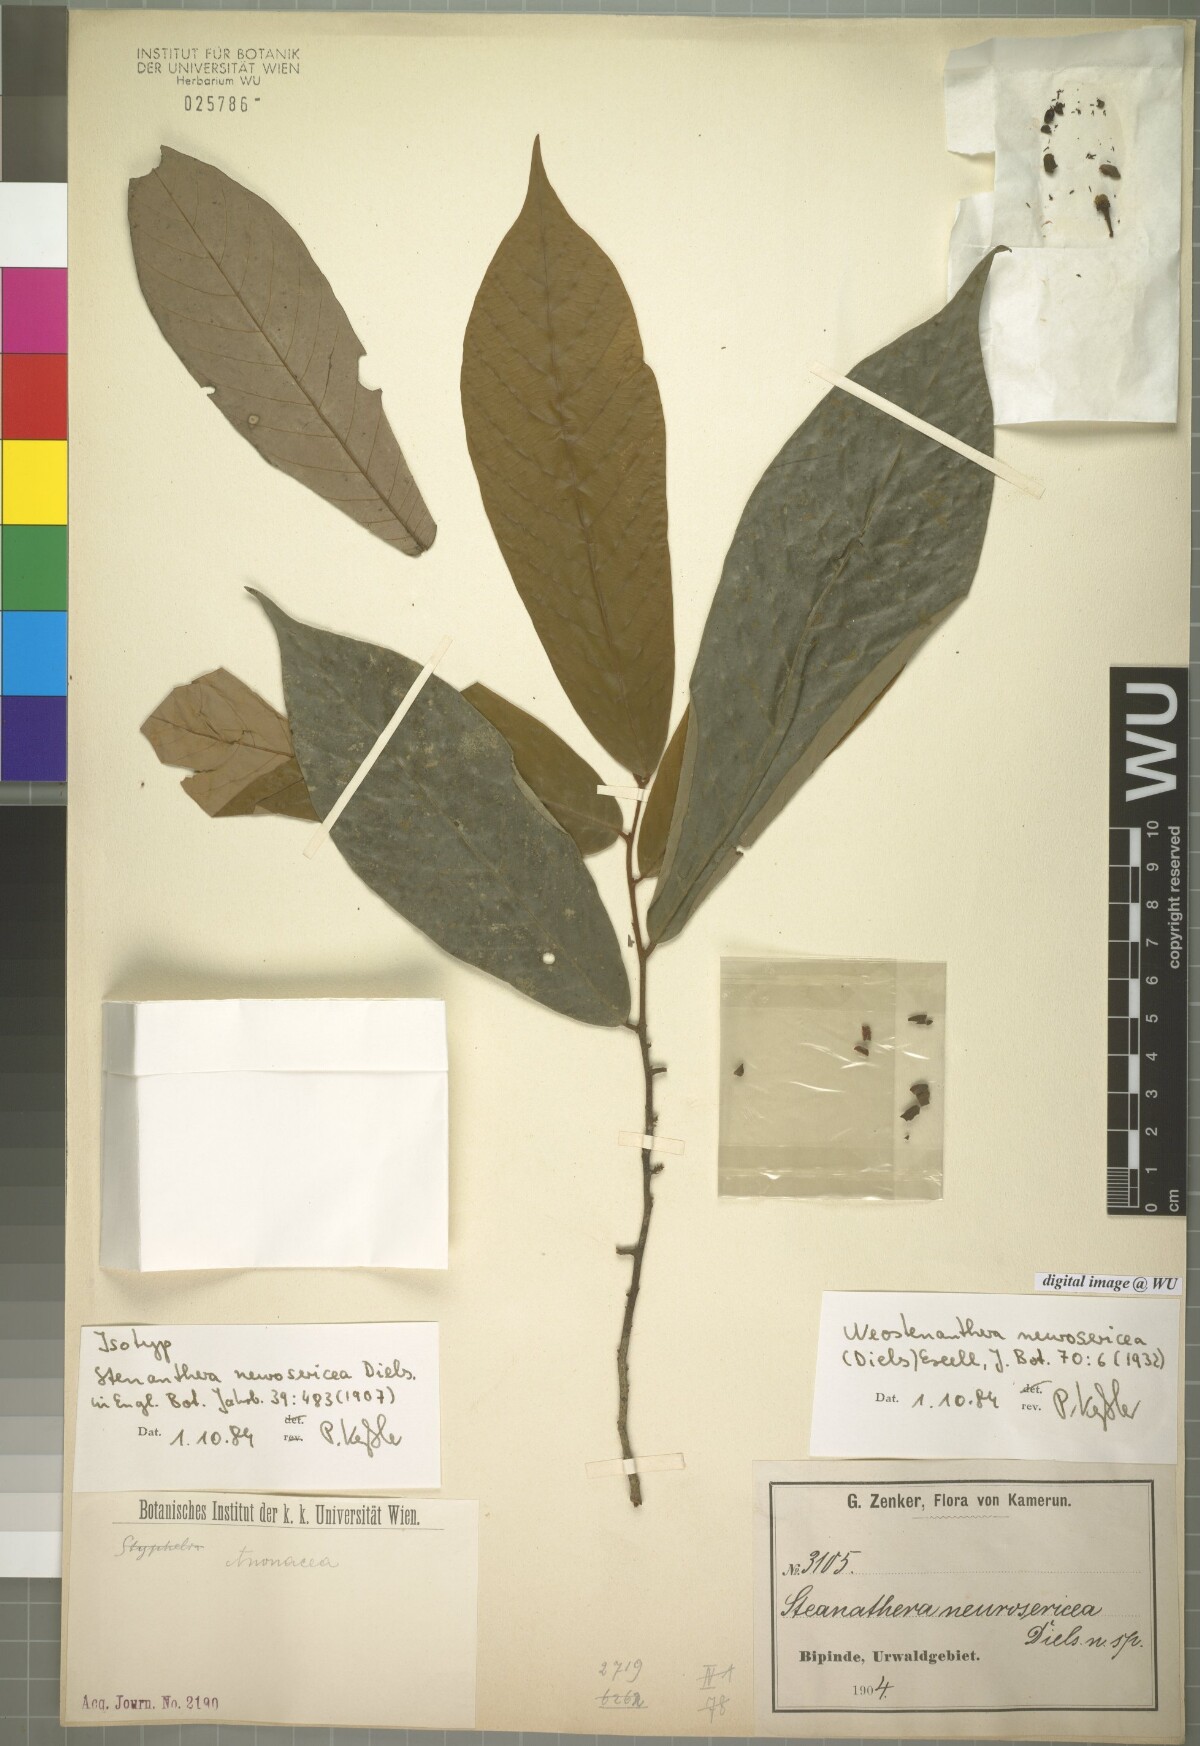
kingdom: Plantae
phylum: Tracheophyta
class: Magnoliopsida
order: Magnoliales
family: Annonaceae
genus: Neostenanthera
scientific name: Neostenanthera neurosericea
